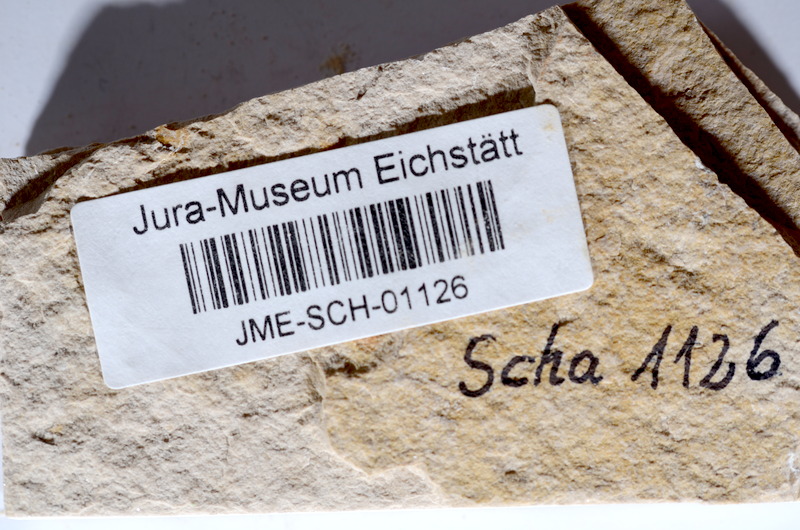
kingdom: Animalia
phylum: Chordata
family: Ascalaboidae
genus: Tharsis
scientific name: Tharsis dubius
